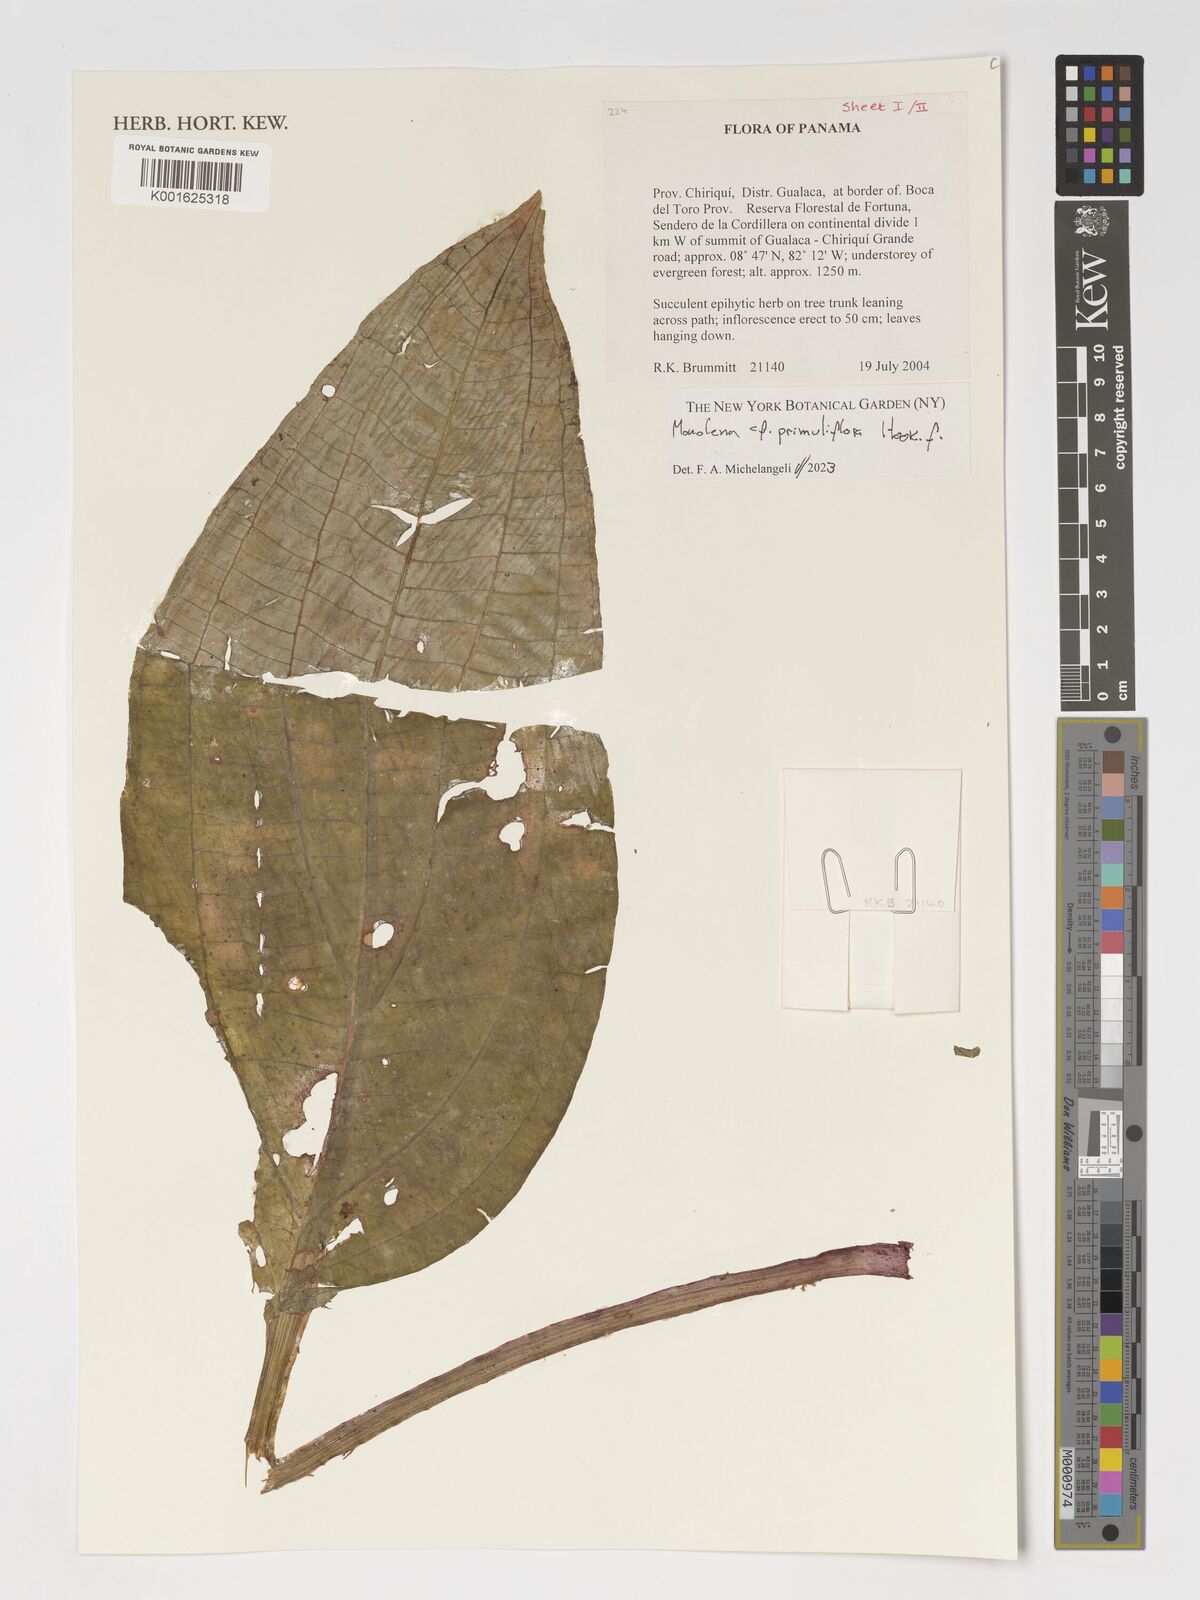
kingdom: Plantae
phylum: Tracheophyta
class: Magnoliopsida
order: Myrtales
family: Melastomataceae
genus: Monolena
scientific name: Monolena primuliflora
